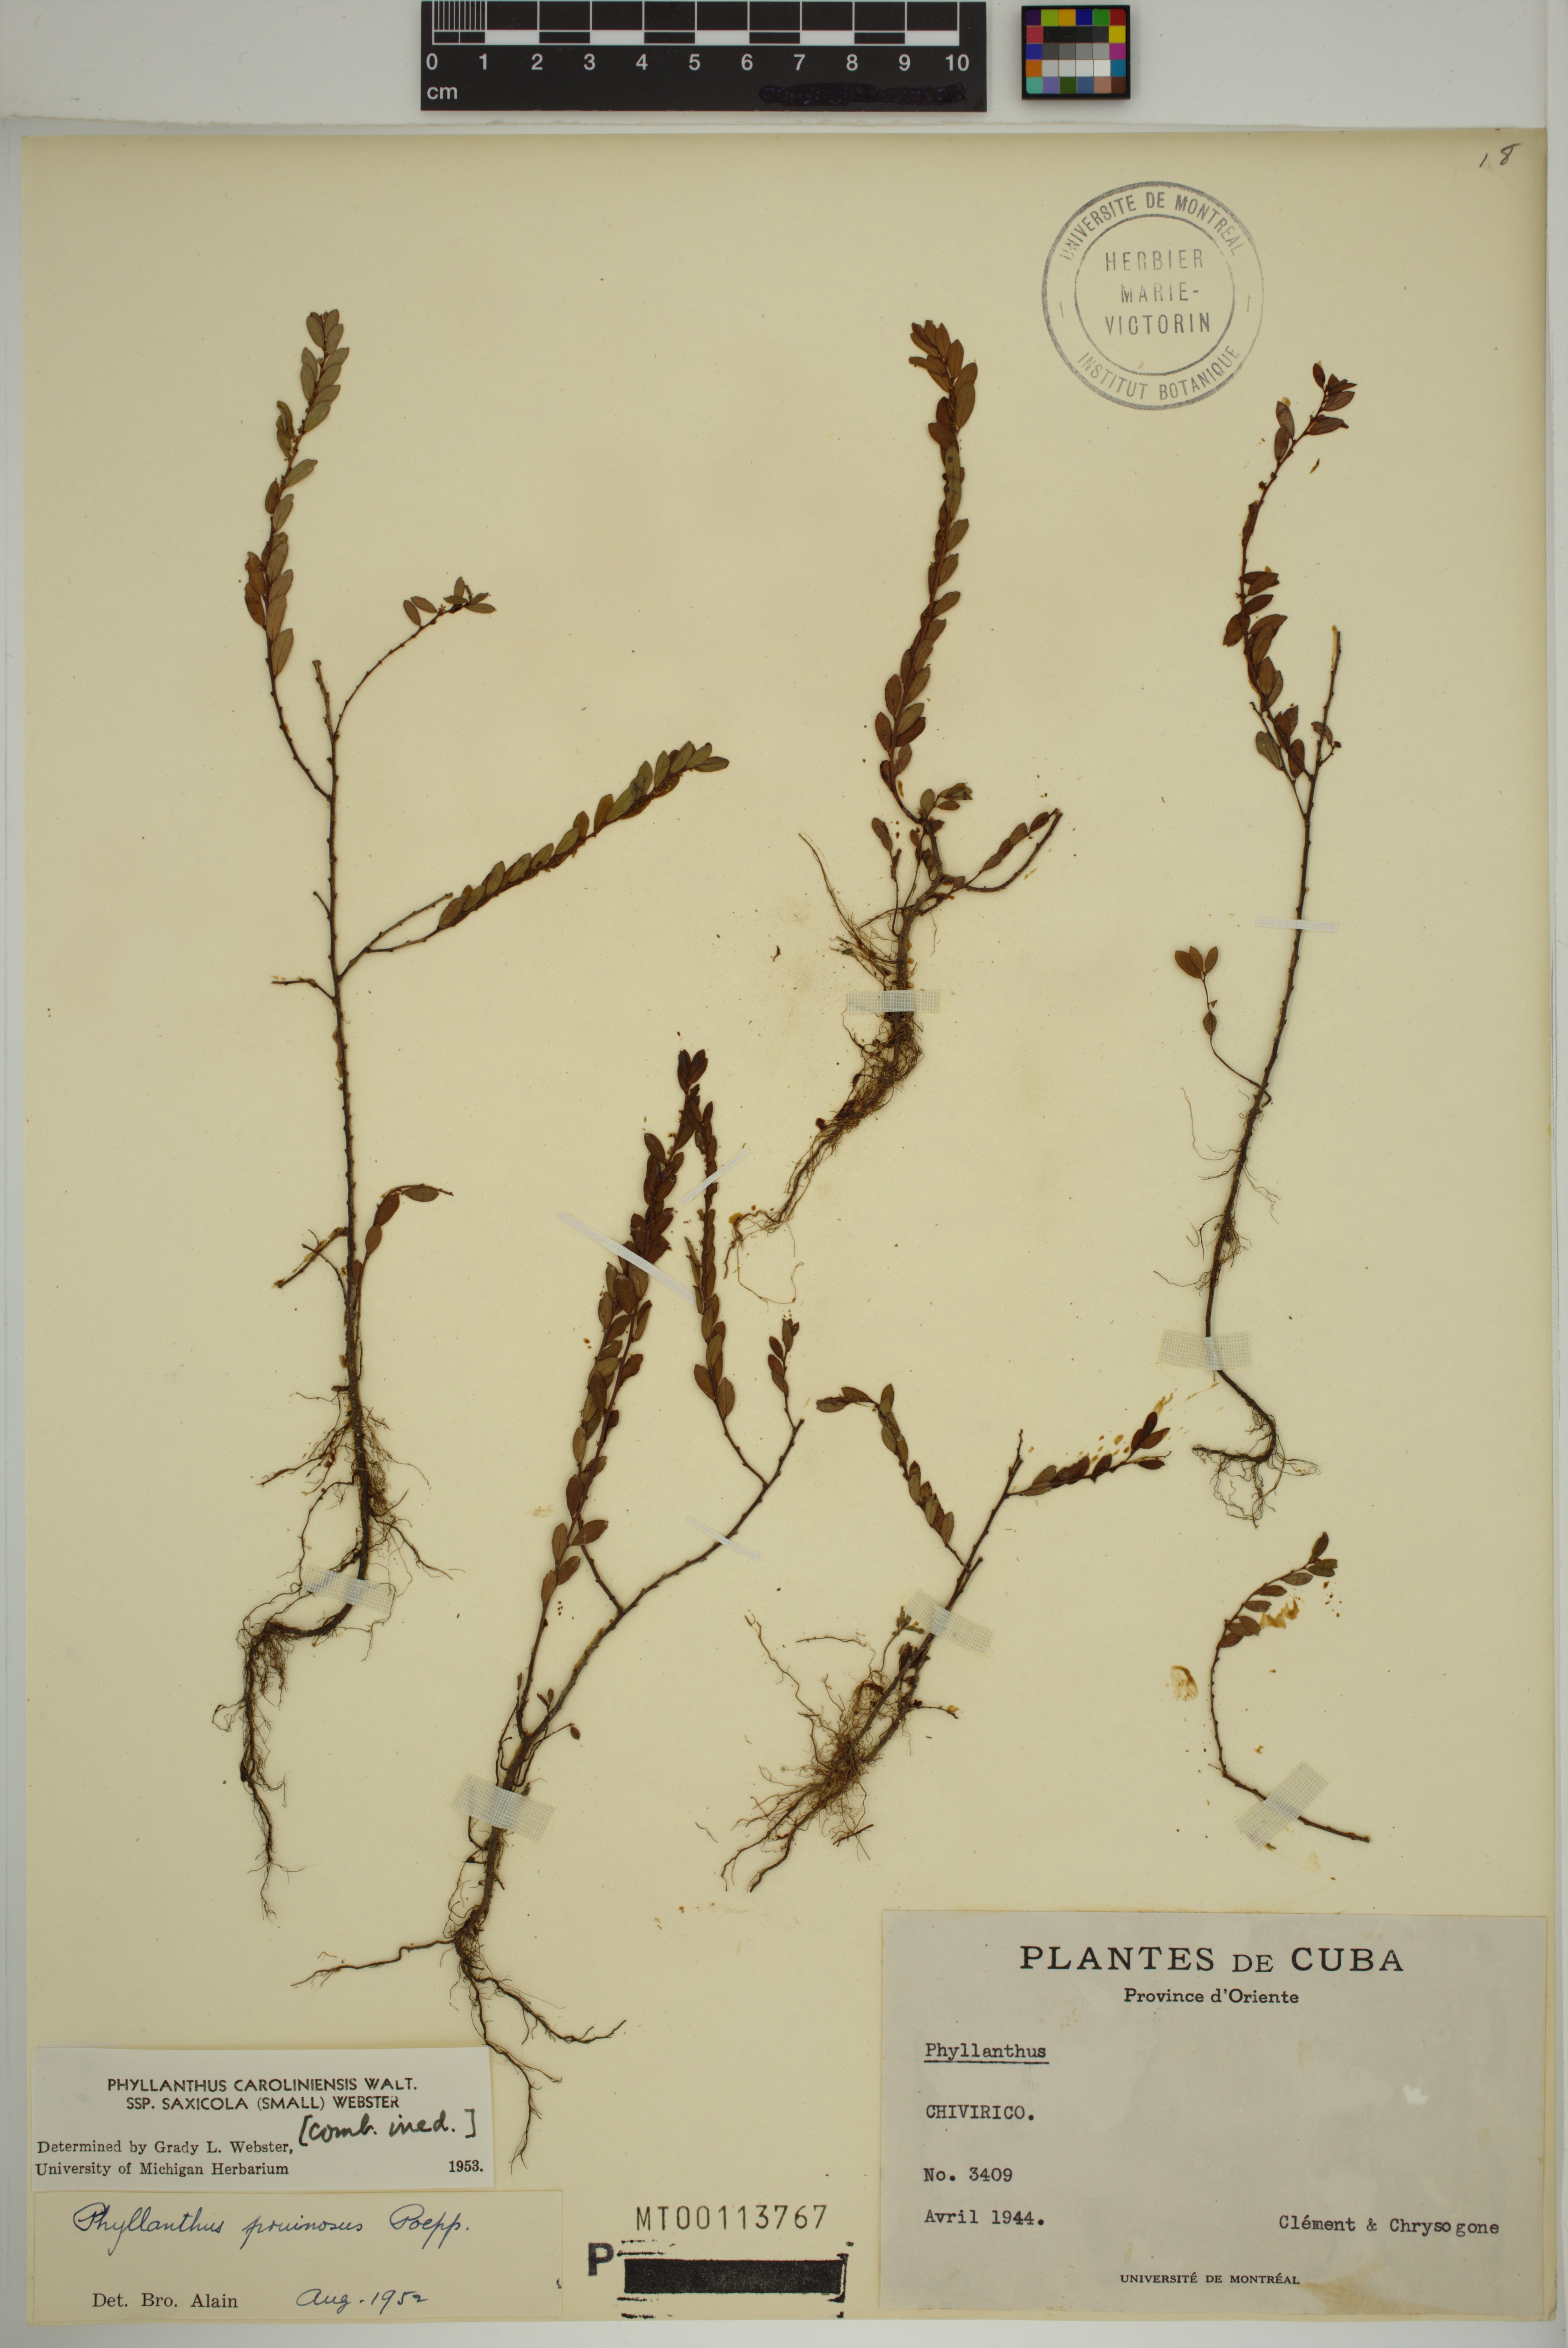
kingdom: Plantae
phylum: Tracheophyta
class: Magnoliopsida
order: Malpighiales
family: Phyllanthaceae
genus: Phyllanthus
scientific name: Phyllanthus caroliniensis
